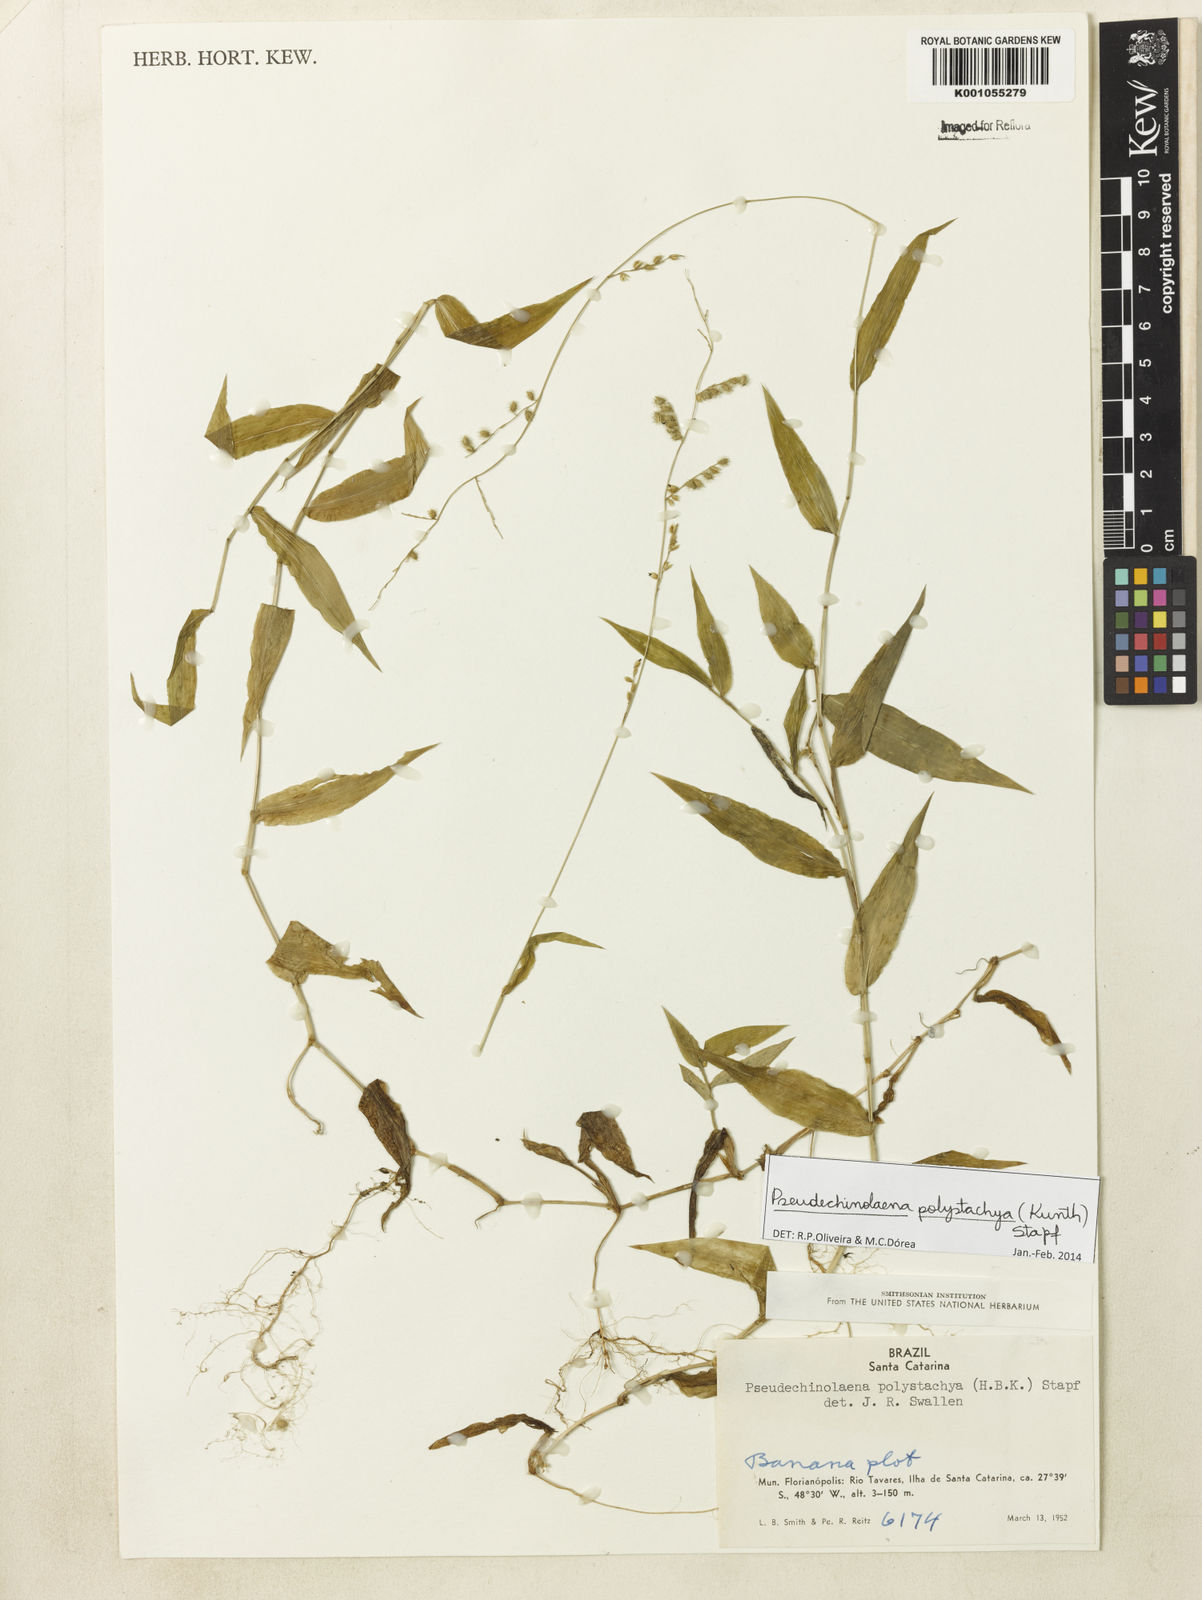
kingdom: Plantae
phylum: Tracheophyta
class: Liliopsida
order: Poales
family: Poaceae
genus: Pseudechinolaena
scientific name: Pseudechinolaena polystachya
